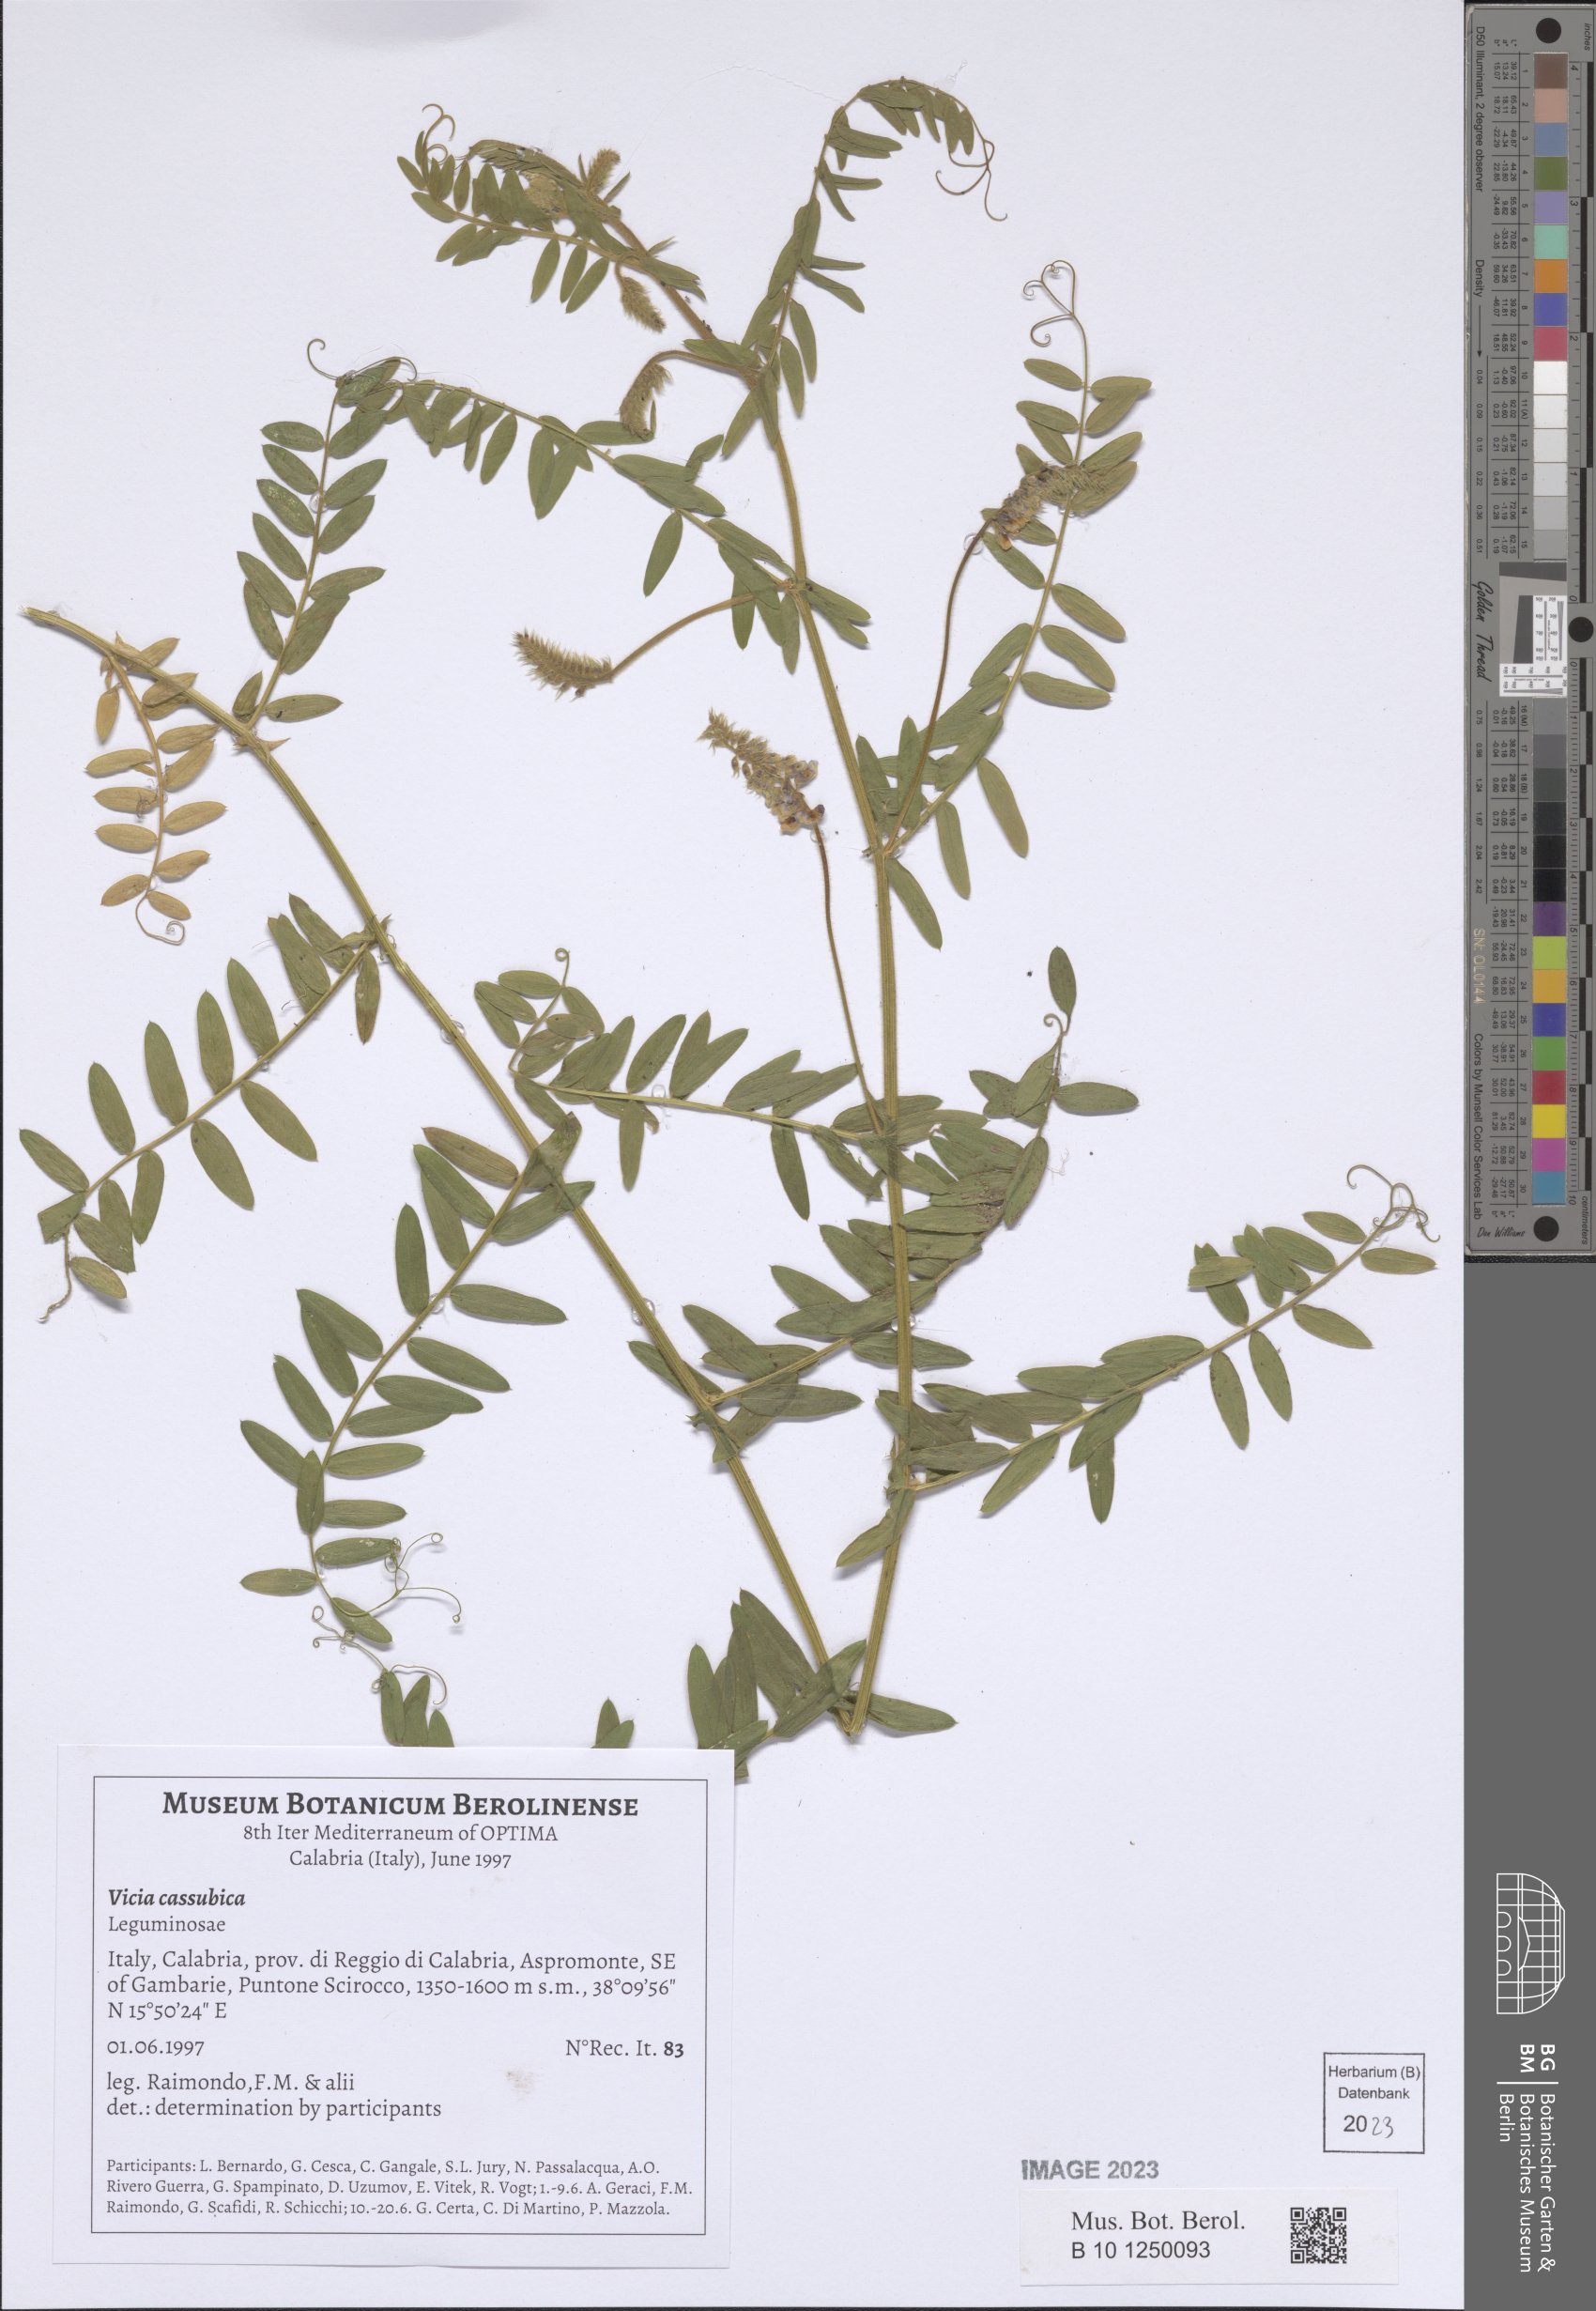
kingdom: Plantae
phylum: Tracheophyta
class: Magnoliopsida
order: Fabales
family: Fabaceae
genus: Vicia
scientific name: Vicia cassubica
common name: Danzig vetch
